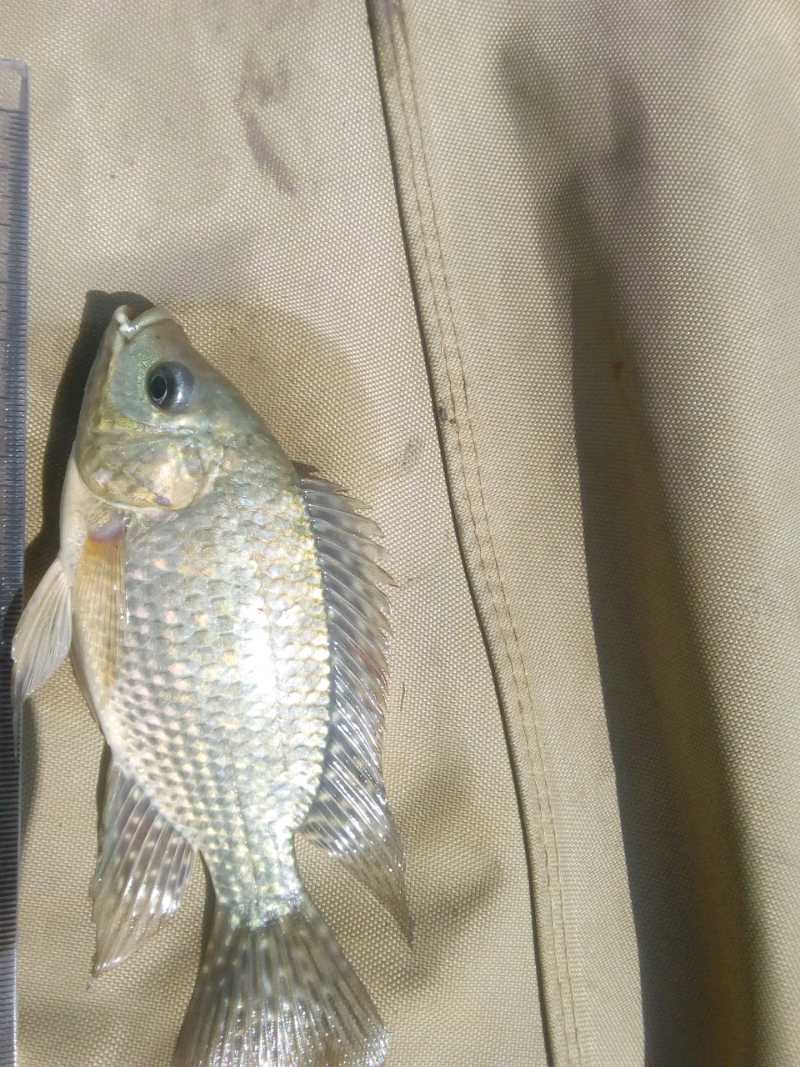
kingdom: Animalia
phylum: Chordata
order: Perciformes
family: Cichlidae
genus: Oreochromis
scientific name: Oreochromis leucostictus
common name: Blue spotted tilapia
